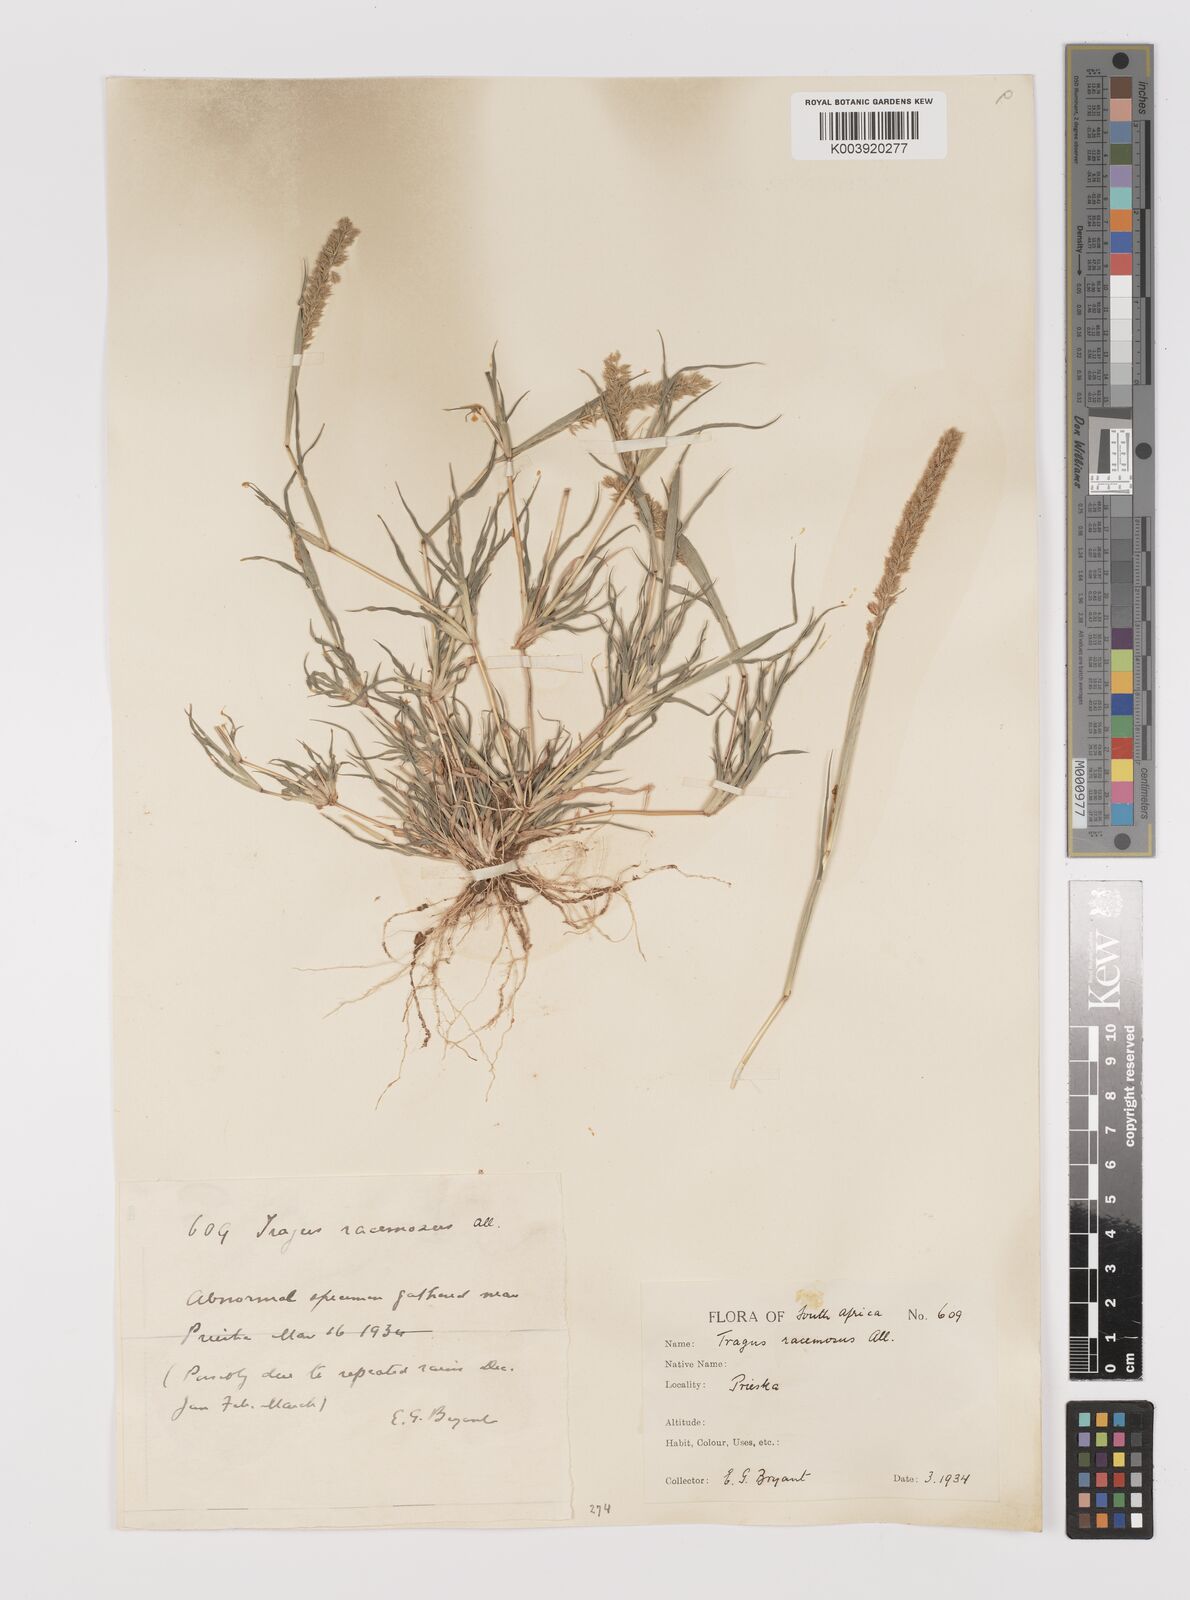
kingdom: Plantae
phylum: Tracheophyta
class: Liliopsida
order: Poales
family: Poaceae
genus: Tragus
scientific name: Tragus racemosus
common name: European bur-grass
